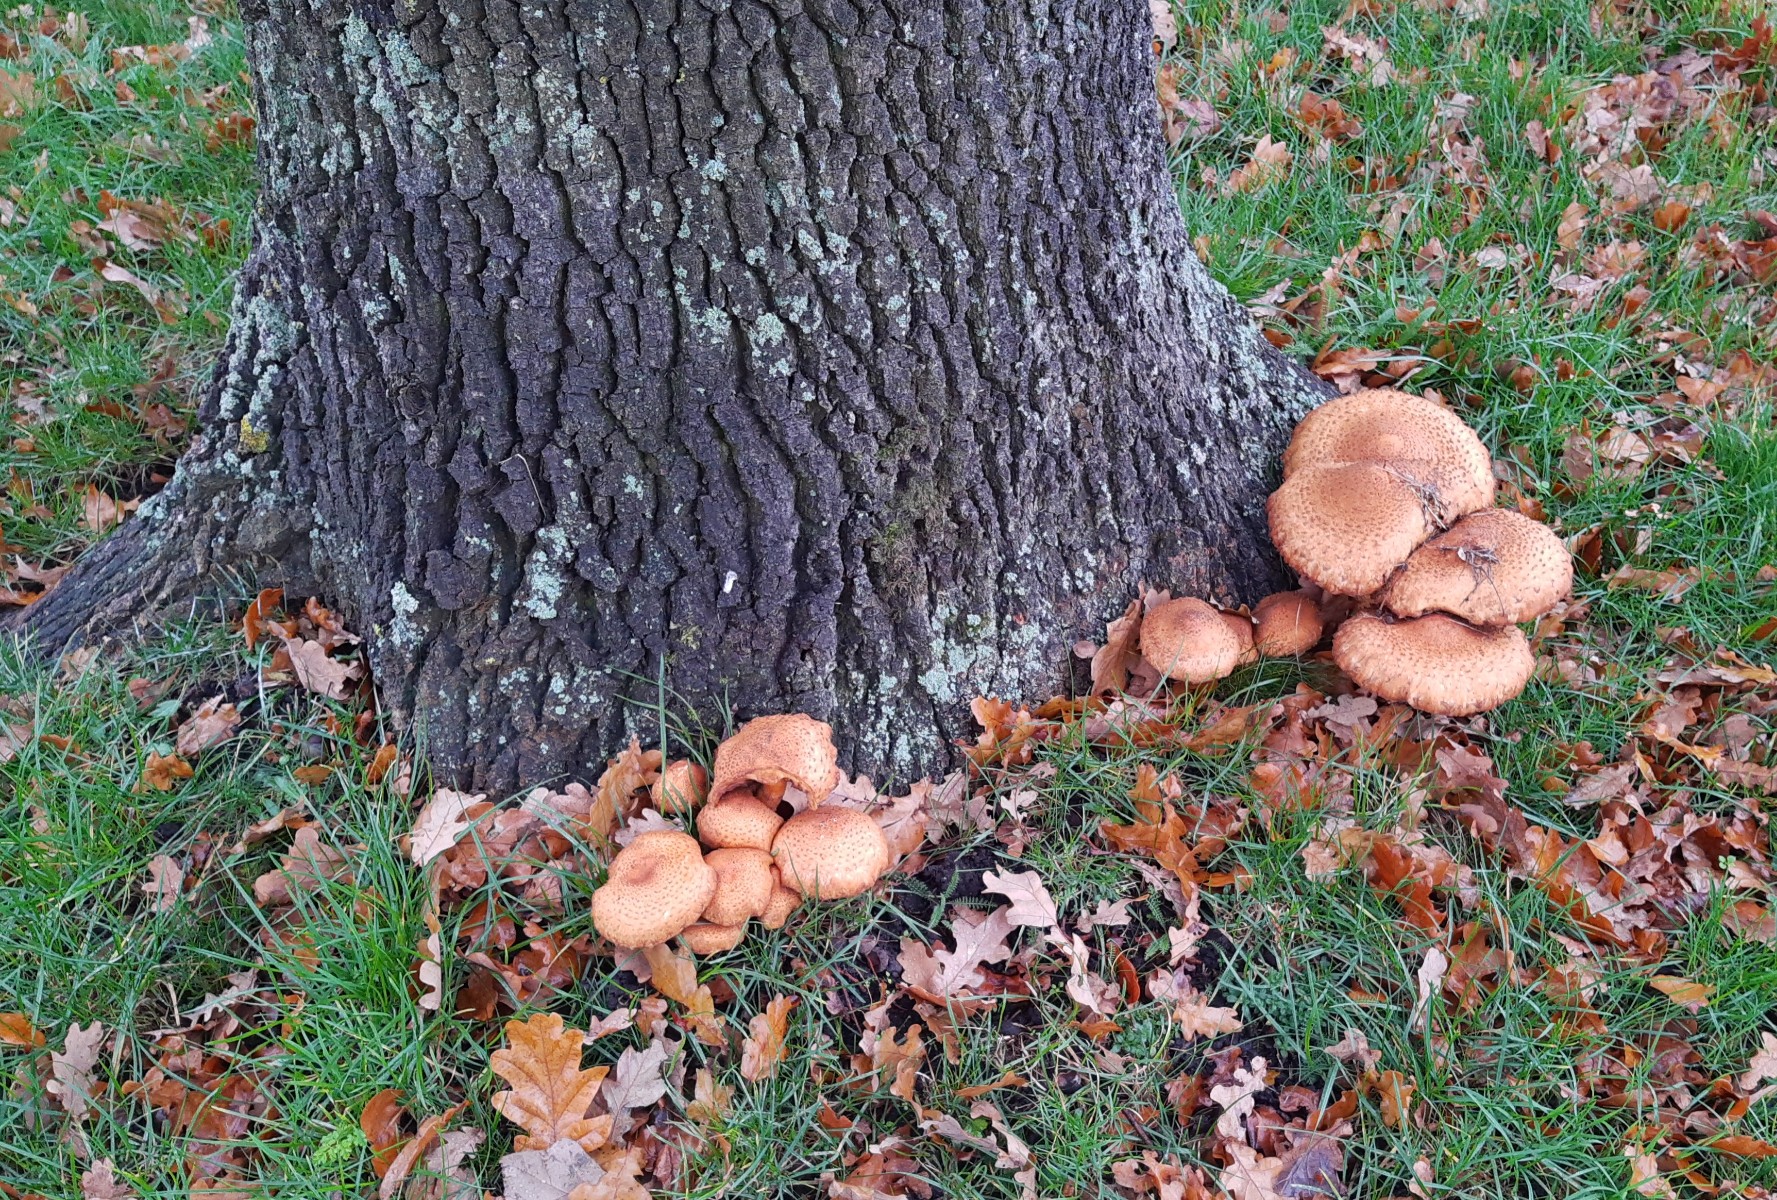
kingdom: Fungi
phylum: Basidiomycota
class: Agaricomycetes
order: Agaricales
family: Strophariaceae
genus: Pholiota
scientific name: Pholiota squarrosa
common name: krumskællet skælhat
